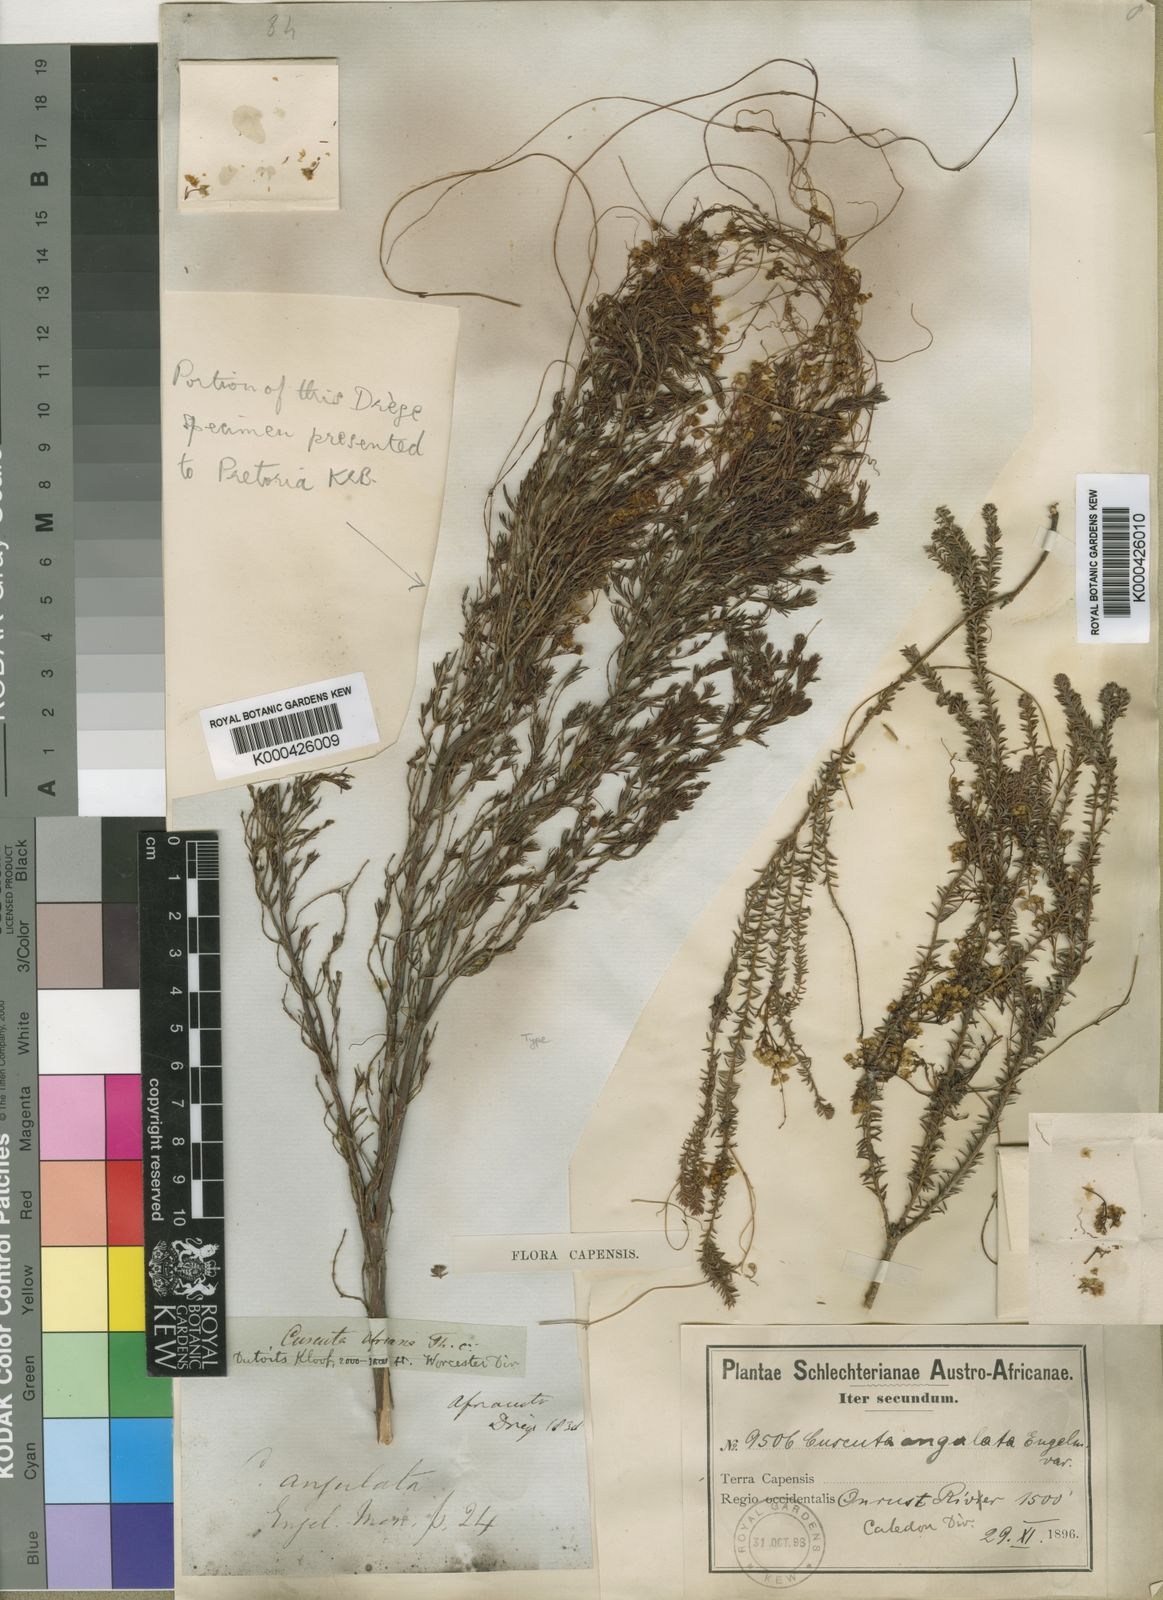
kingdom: Plantae
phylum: Tracheophyta
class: Magnoliopsida
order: Solanales
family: Convolvulaceae
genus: Cuscuta
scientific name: Cuscuta angulata
